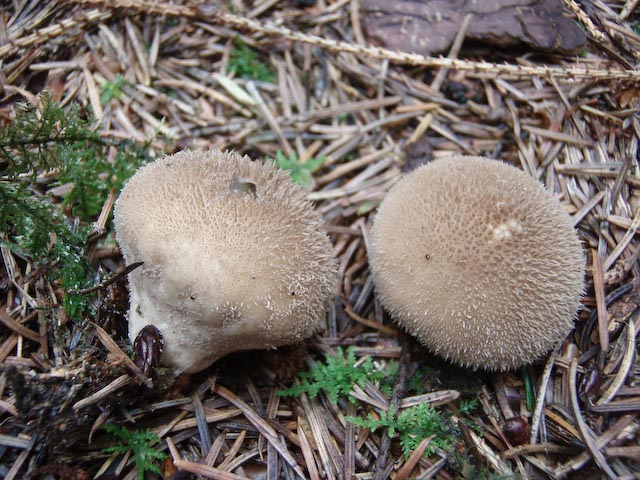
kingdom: Fungi
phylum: Basidiomycota
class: Agaricomycetes
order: Agaricales
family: Lycoperdaceae
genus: Lycoperdon
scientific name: Lycoperdon nigrescens
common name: sortagtig støvbold
